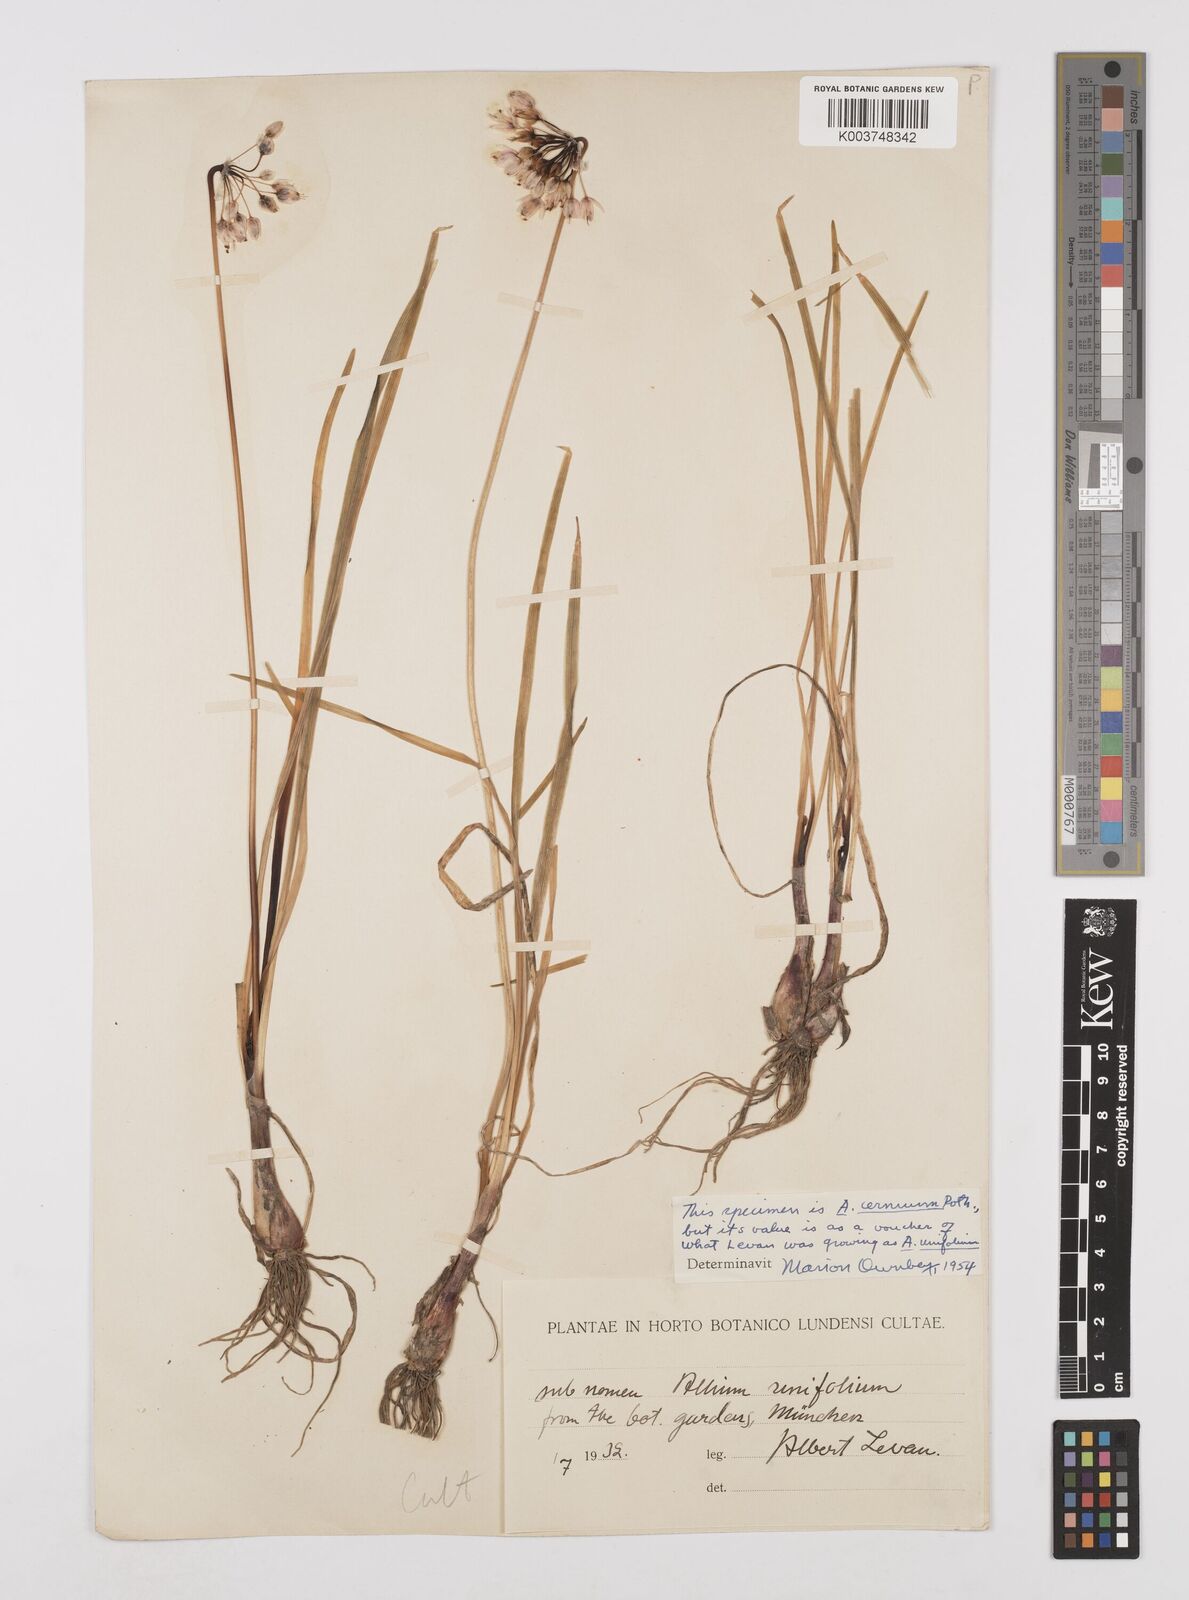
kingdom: Plantae
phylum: Tracheophyta
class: Liliopsida
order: Asparagales
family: Amaryllidaceae
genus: Allium
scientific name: Allium cernuum
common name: Nodding onion
